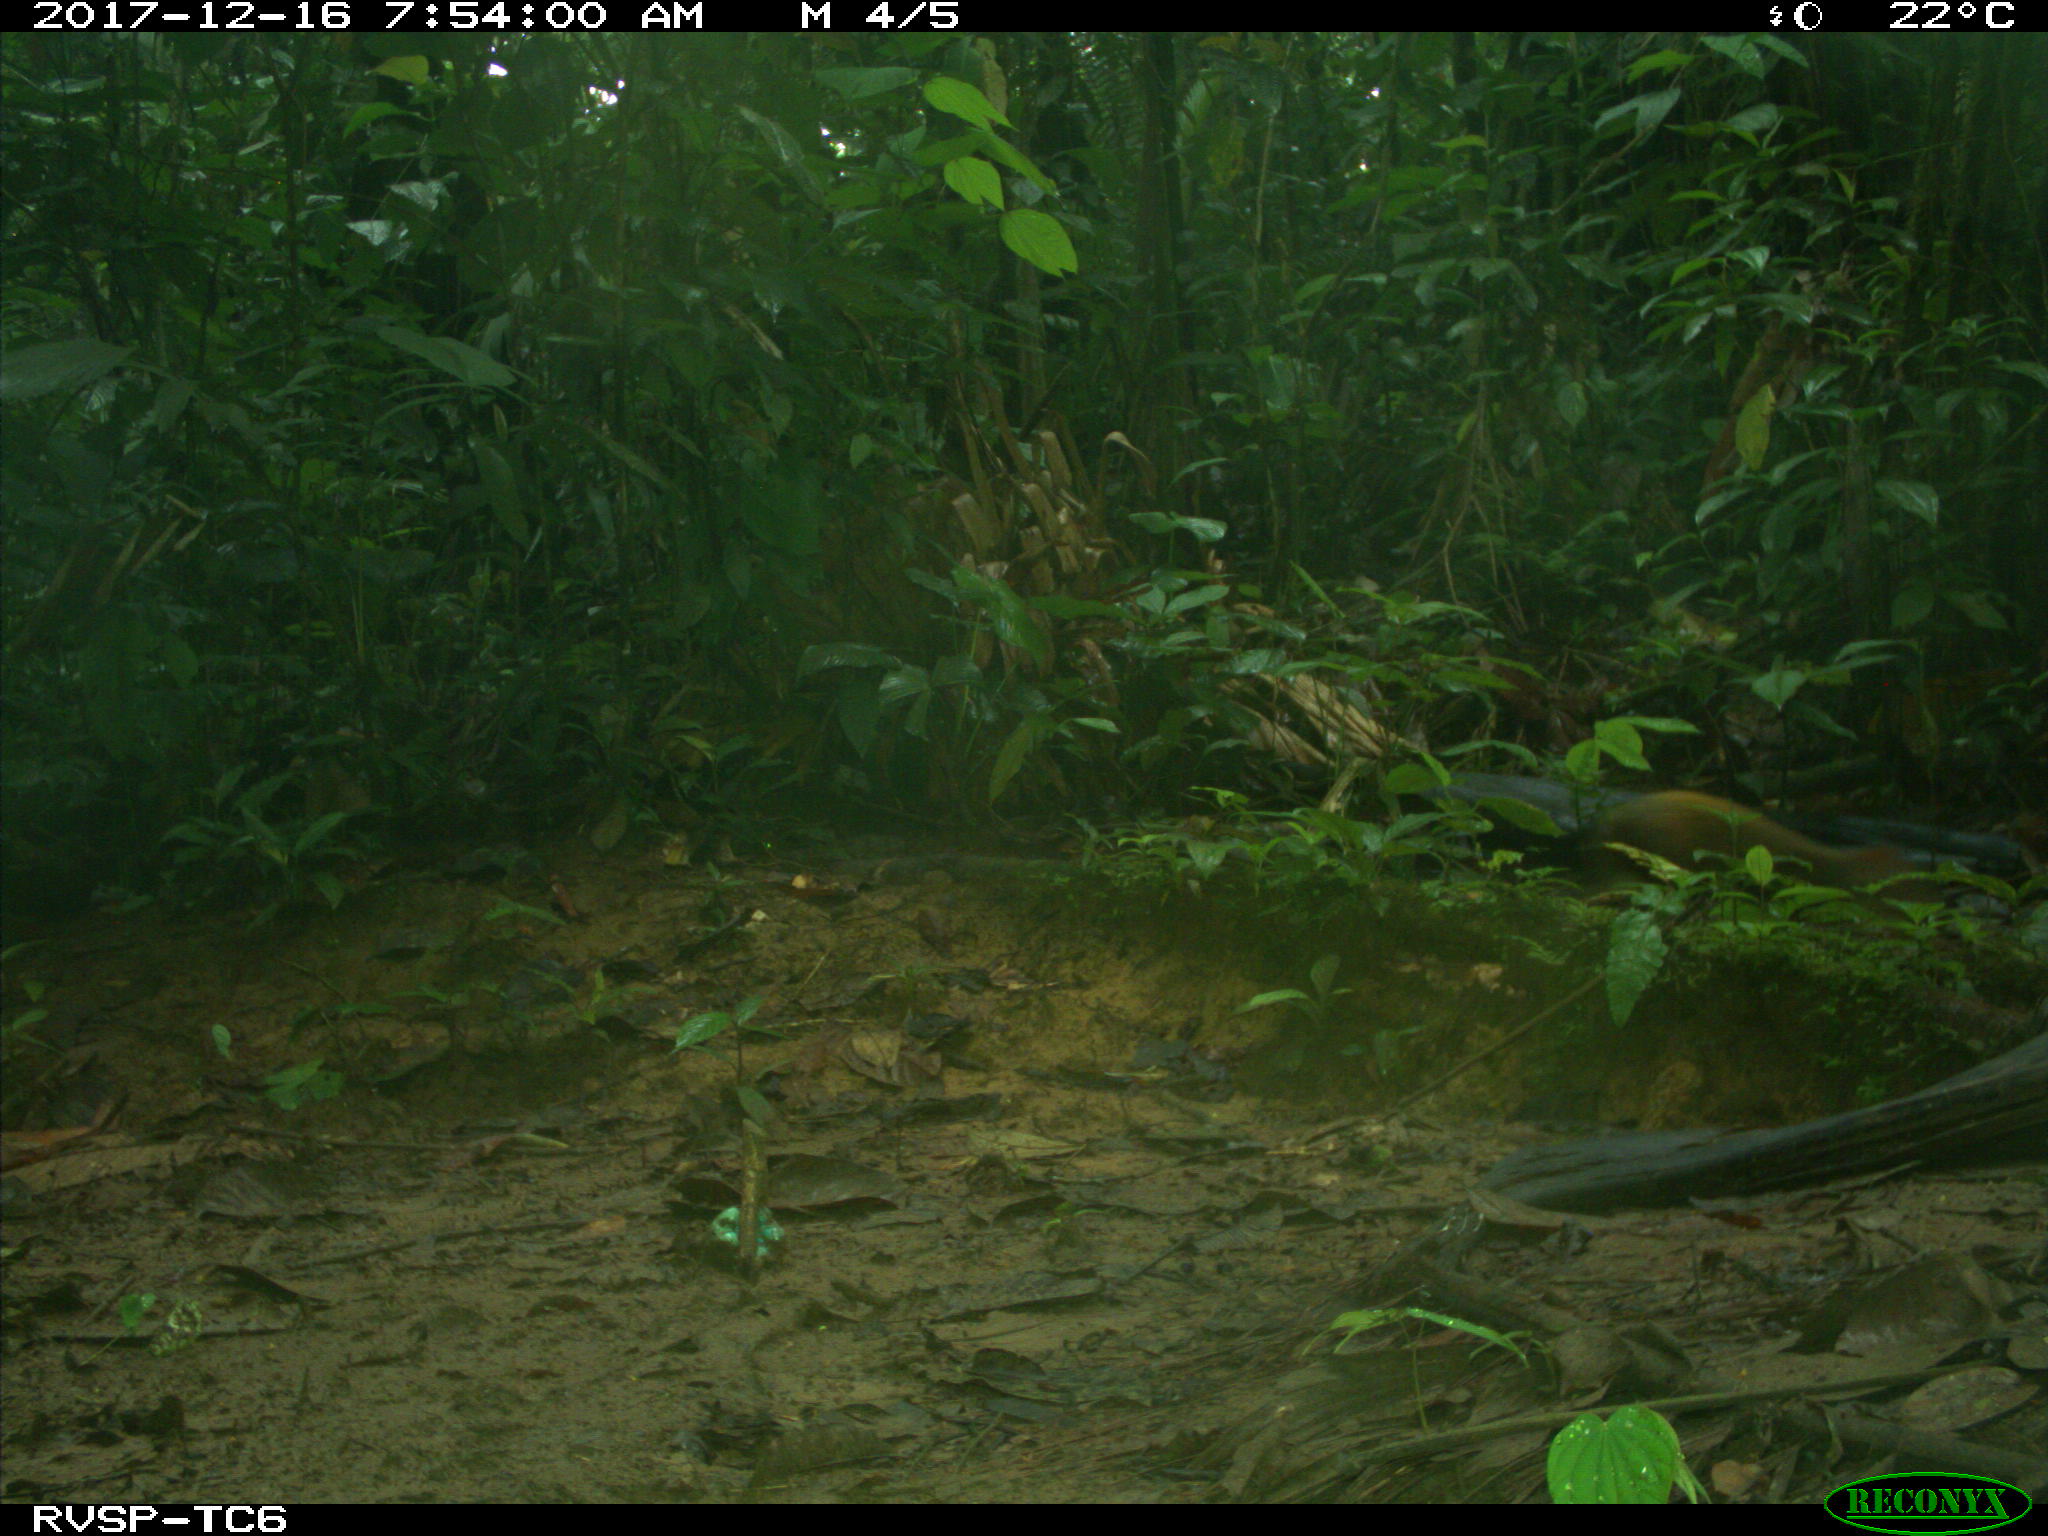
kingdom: Animalia
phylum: Chordata
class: Mammalia
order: Rodentia
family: Dasyproctidae
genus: Dasyprocta
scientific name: Dasyprocta punctata
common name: Central american agouti
